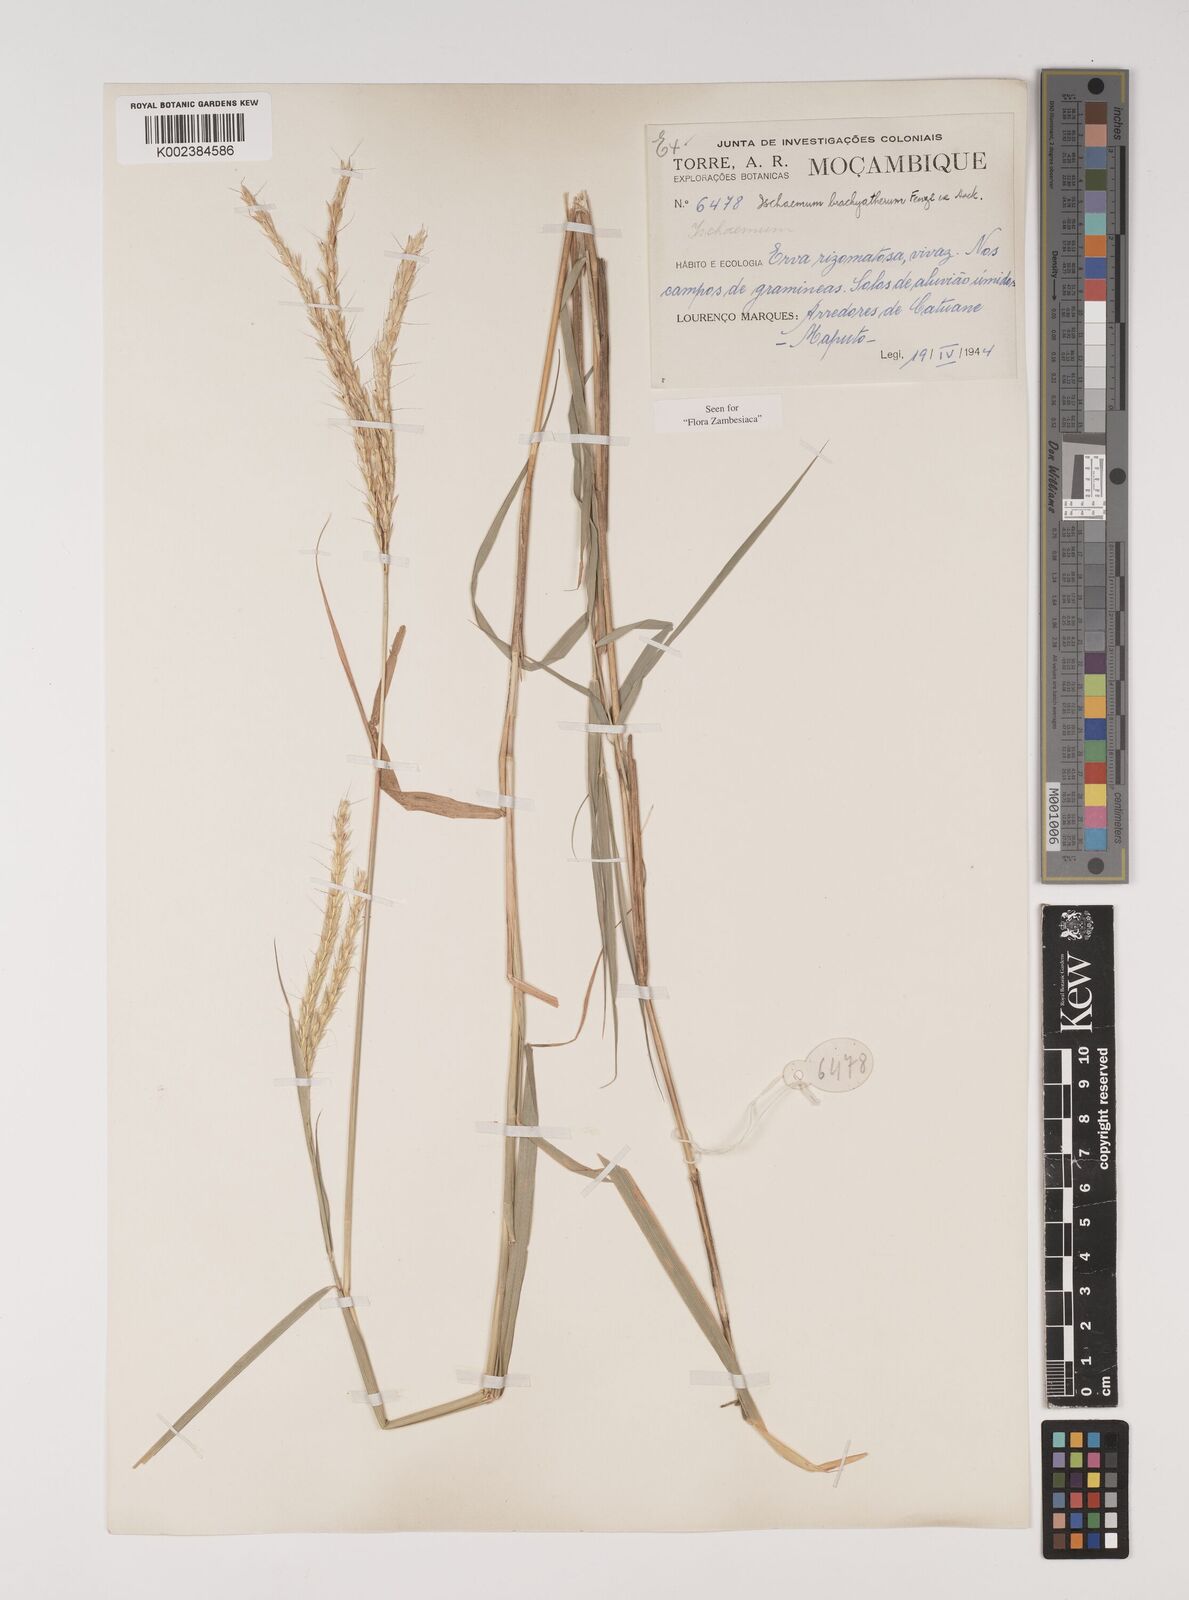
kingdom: Plantae
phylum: Tracheophyta
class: Liliopsida
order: Poales
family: Poaceae
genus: Ischaemum
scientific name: Ischaemum afrum
